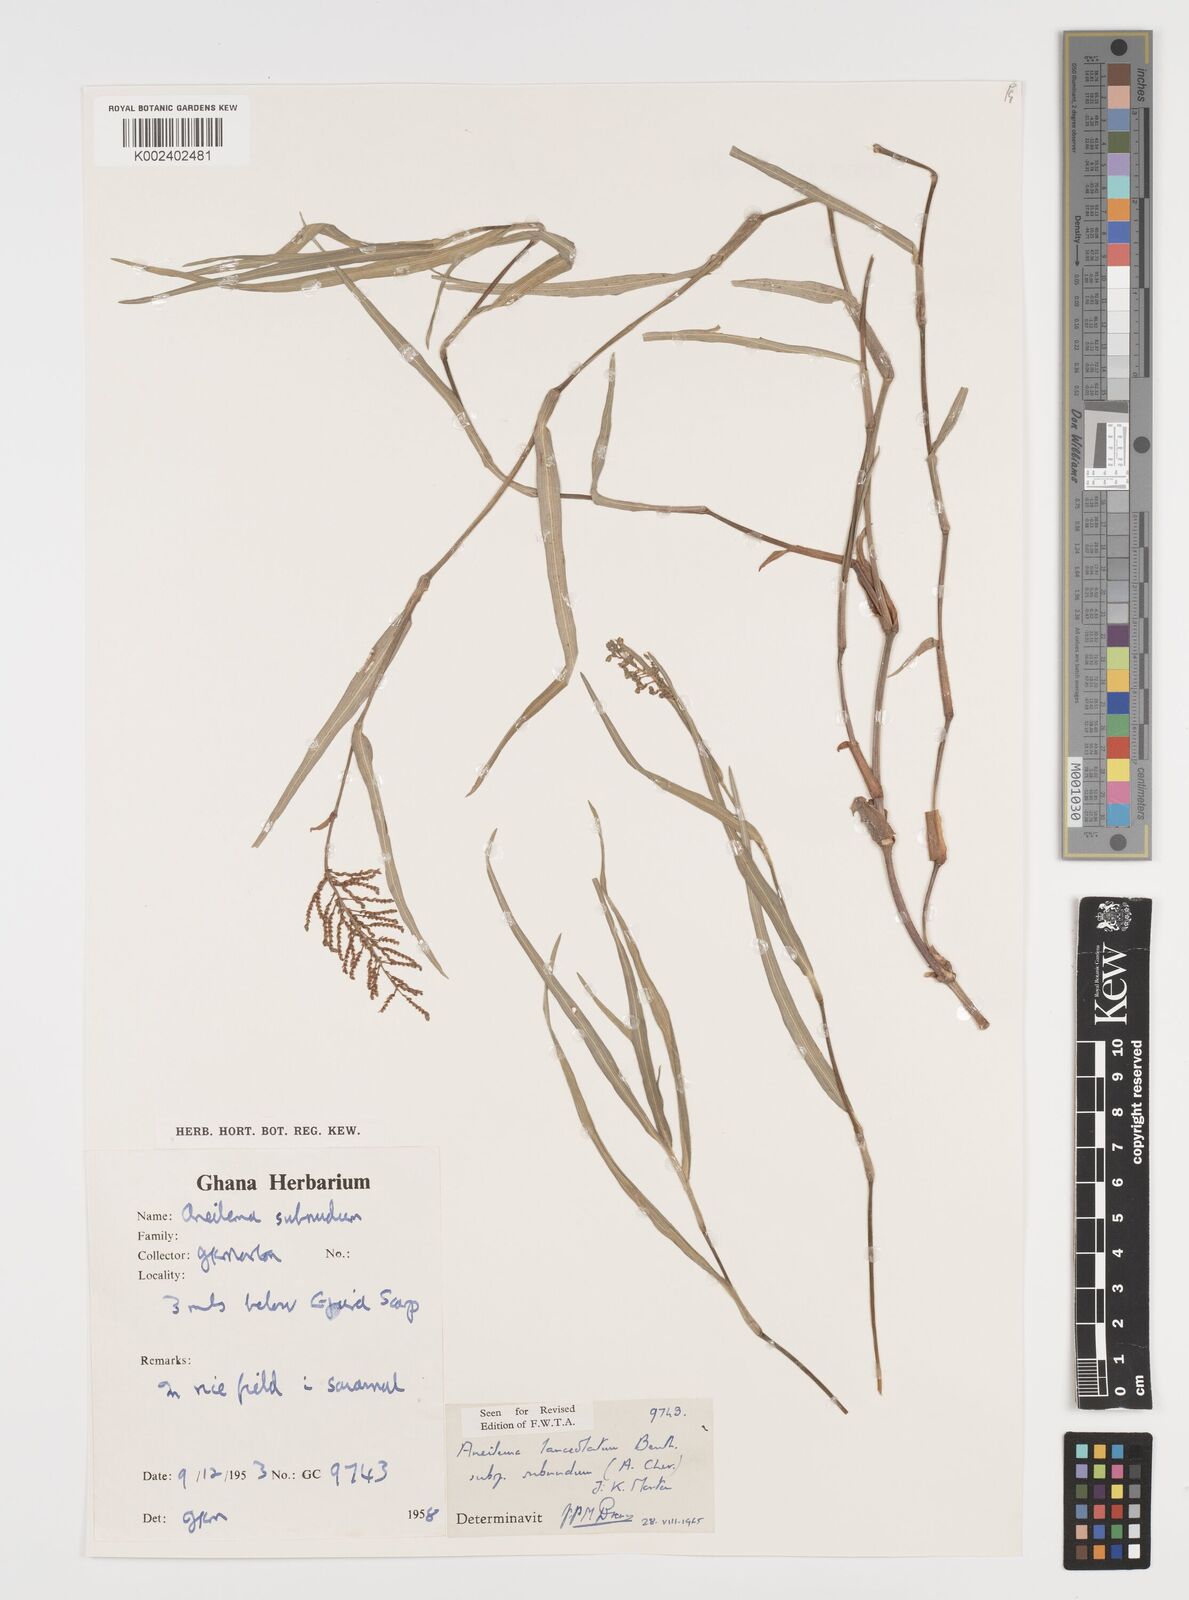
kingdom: Plantae
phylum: Tracheophyta
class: Liliopsida
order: Commelinales
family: Commelinaceae
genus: Aneilema
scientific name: Aneilema lanceolatum
